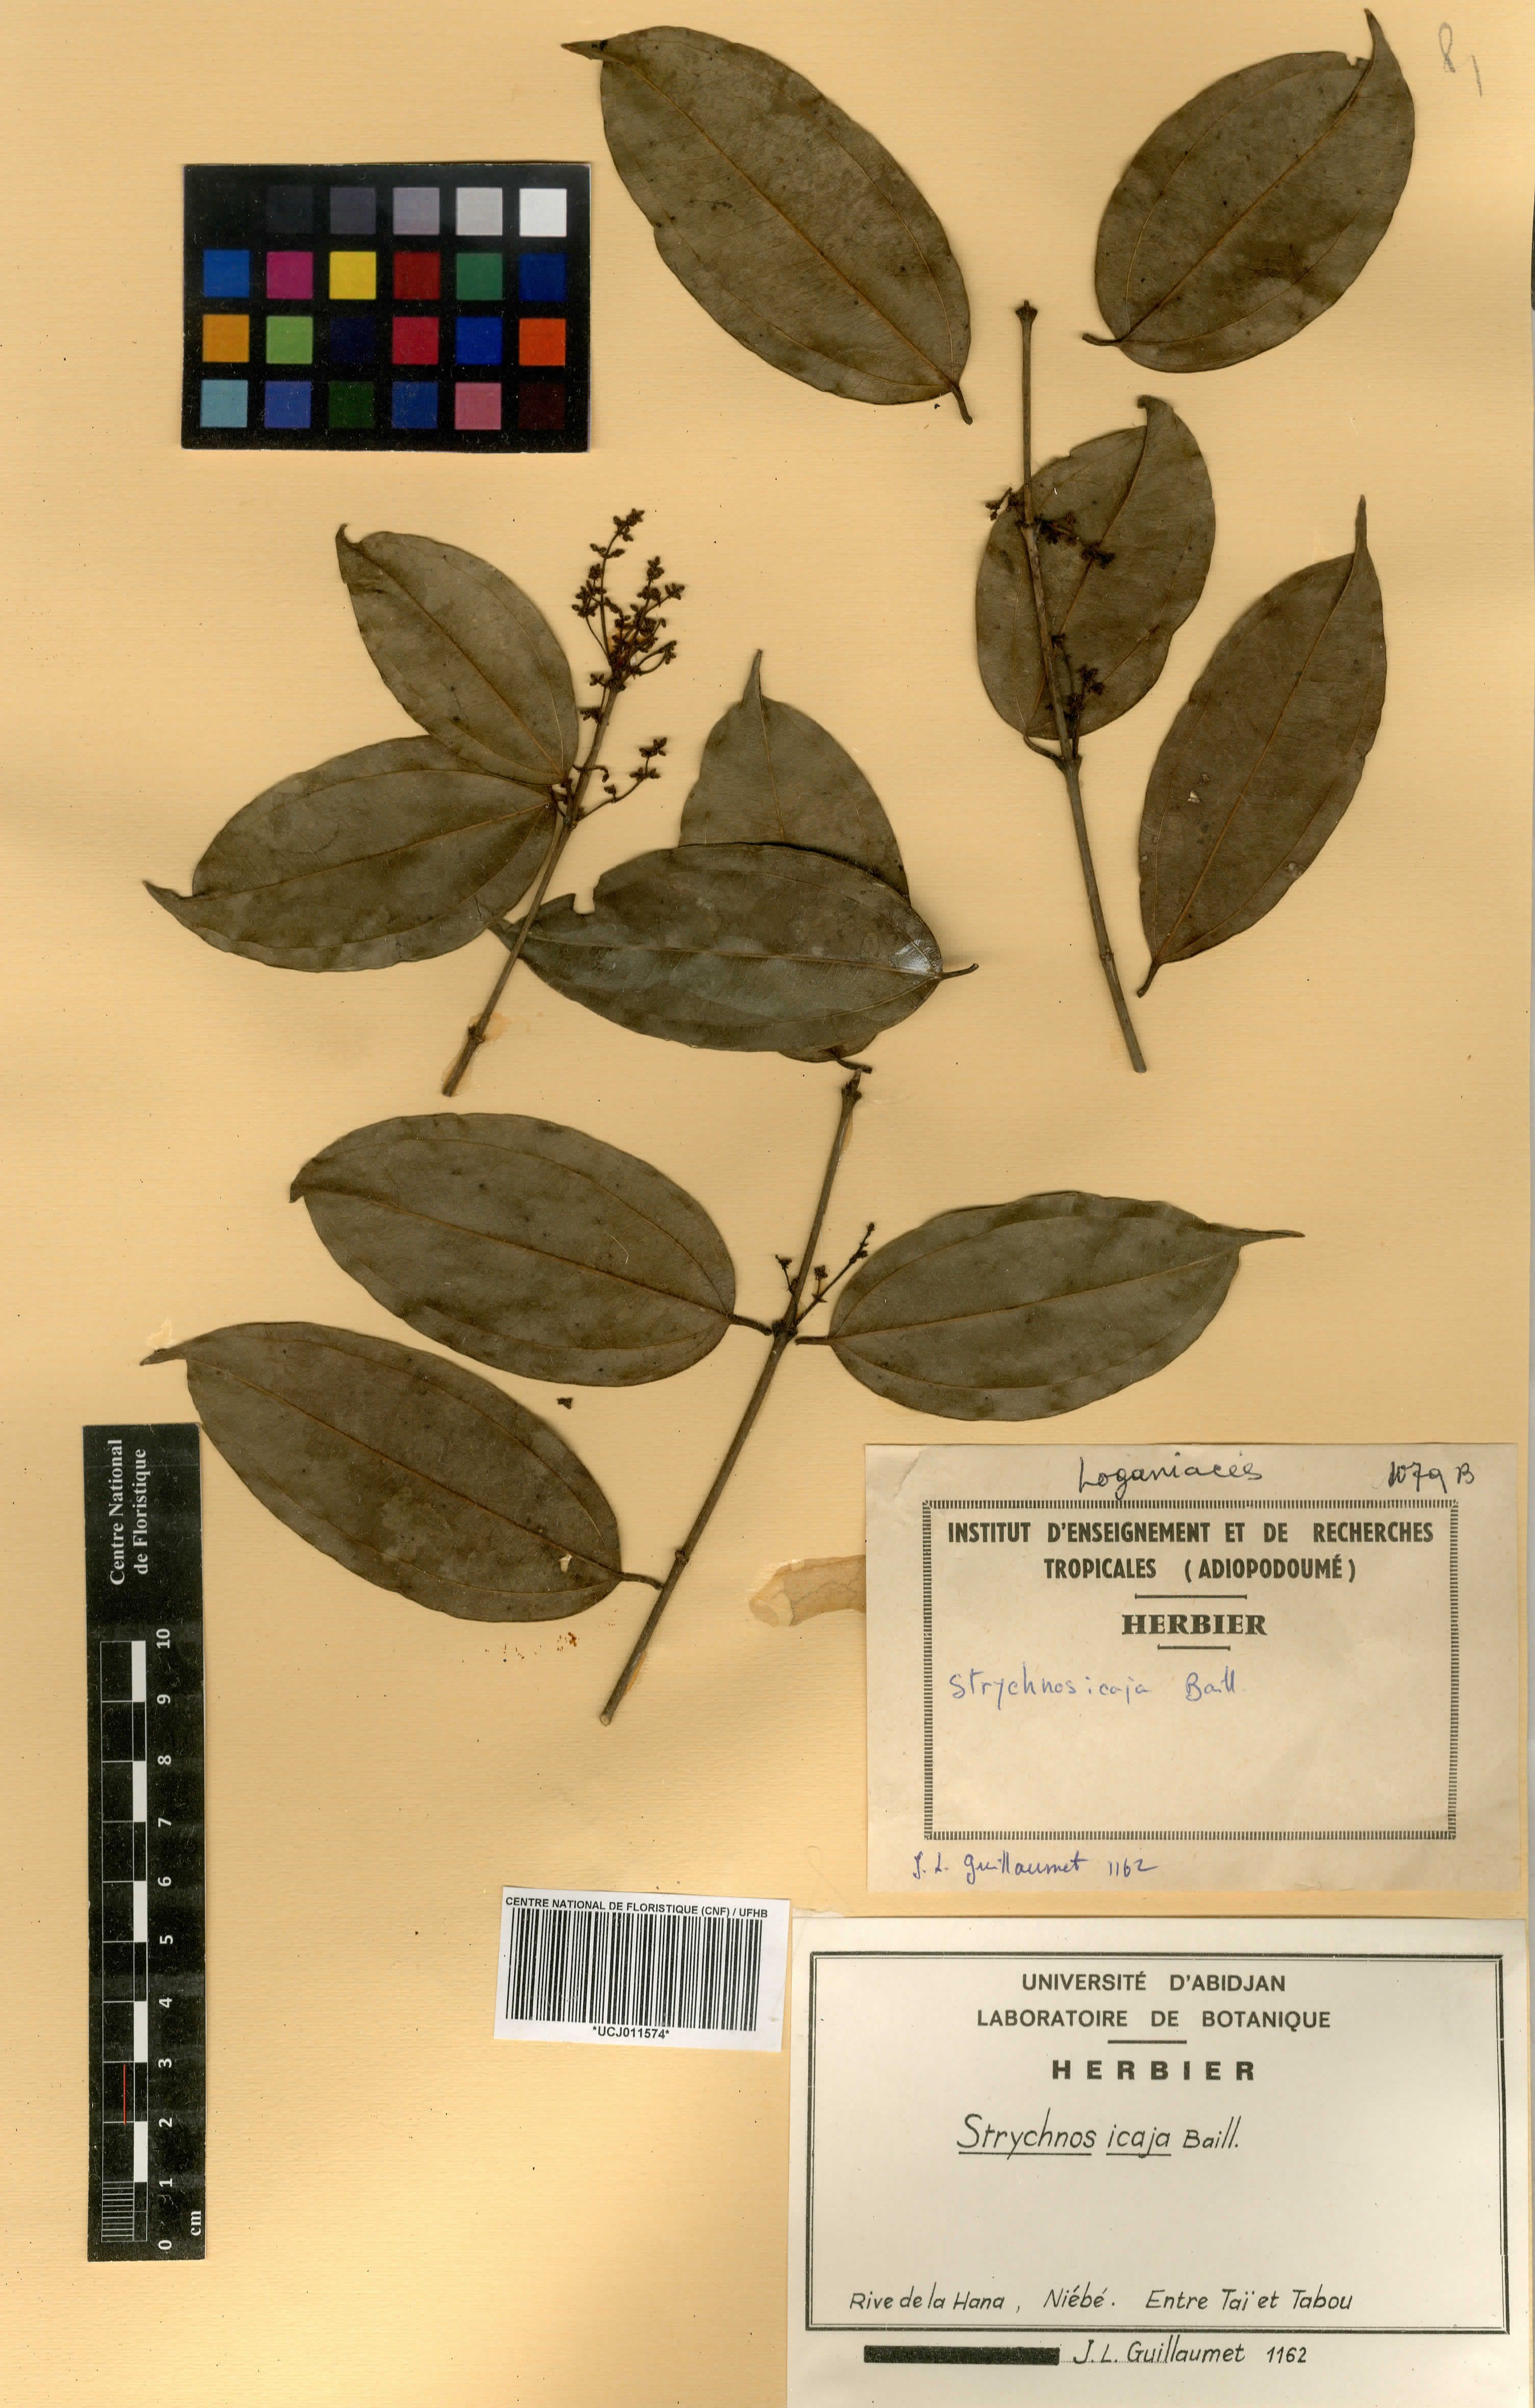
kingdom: Plantae
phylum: Tracheophyta
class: Magnoliopsida
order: Gentianales
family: Loganiaceae
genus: Strychnos
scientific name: Strychnos icaja
